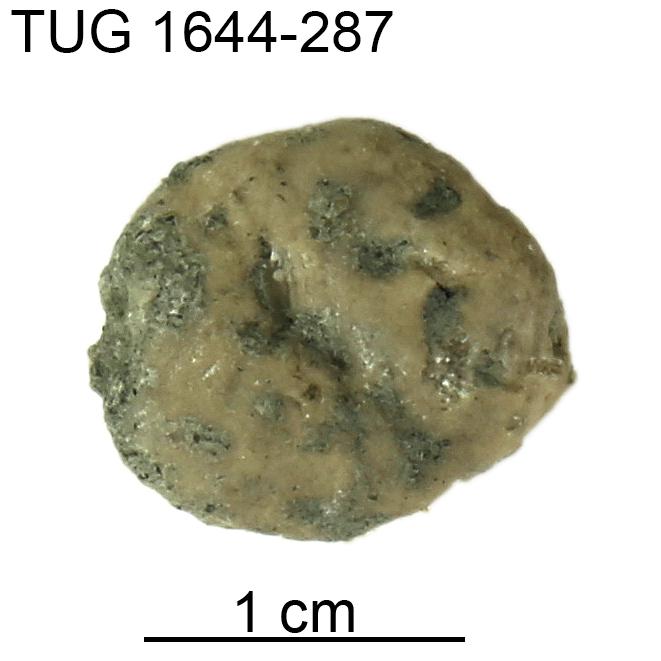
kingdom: Animalia
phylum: Echinodermata
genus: Bolboporites
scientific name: Bolboporites
